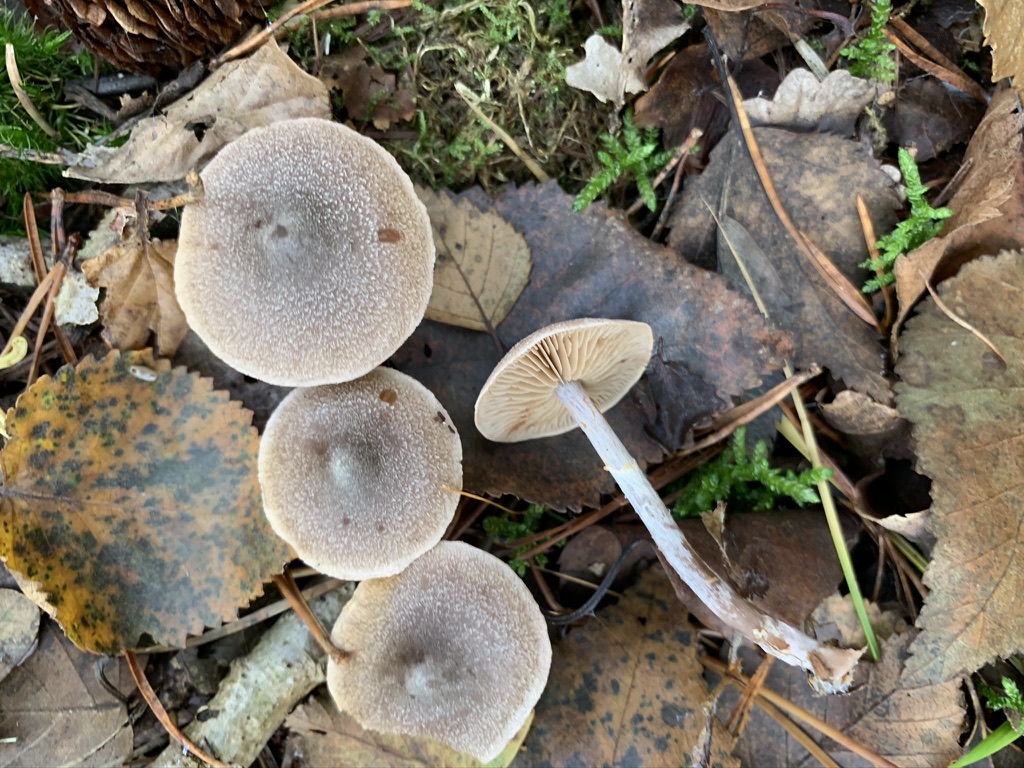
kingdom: Fungi
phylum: Basidiomycota
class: Agaricomycetes
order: Agaricales
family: Cortinariaceae
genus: Cortinarius
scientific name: Cortinarius hemitrichus
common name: hvidfnugget slørhat
